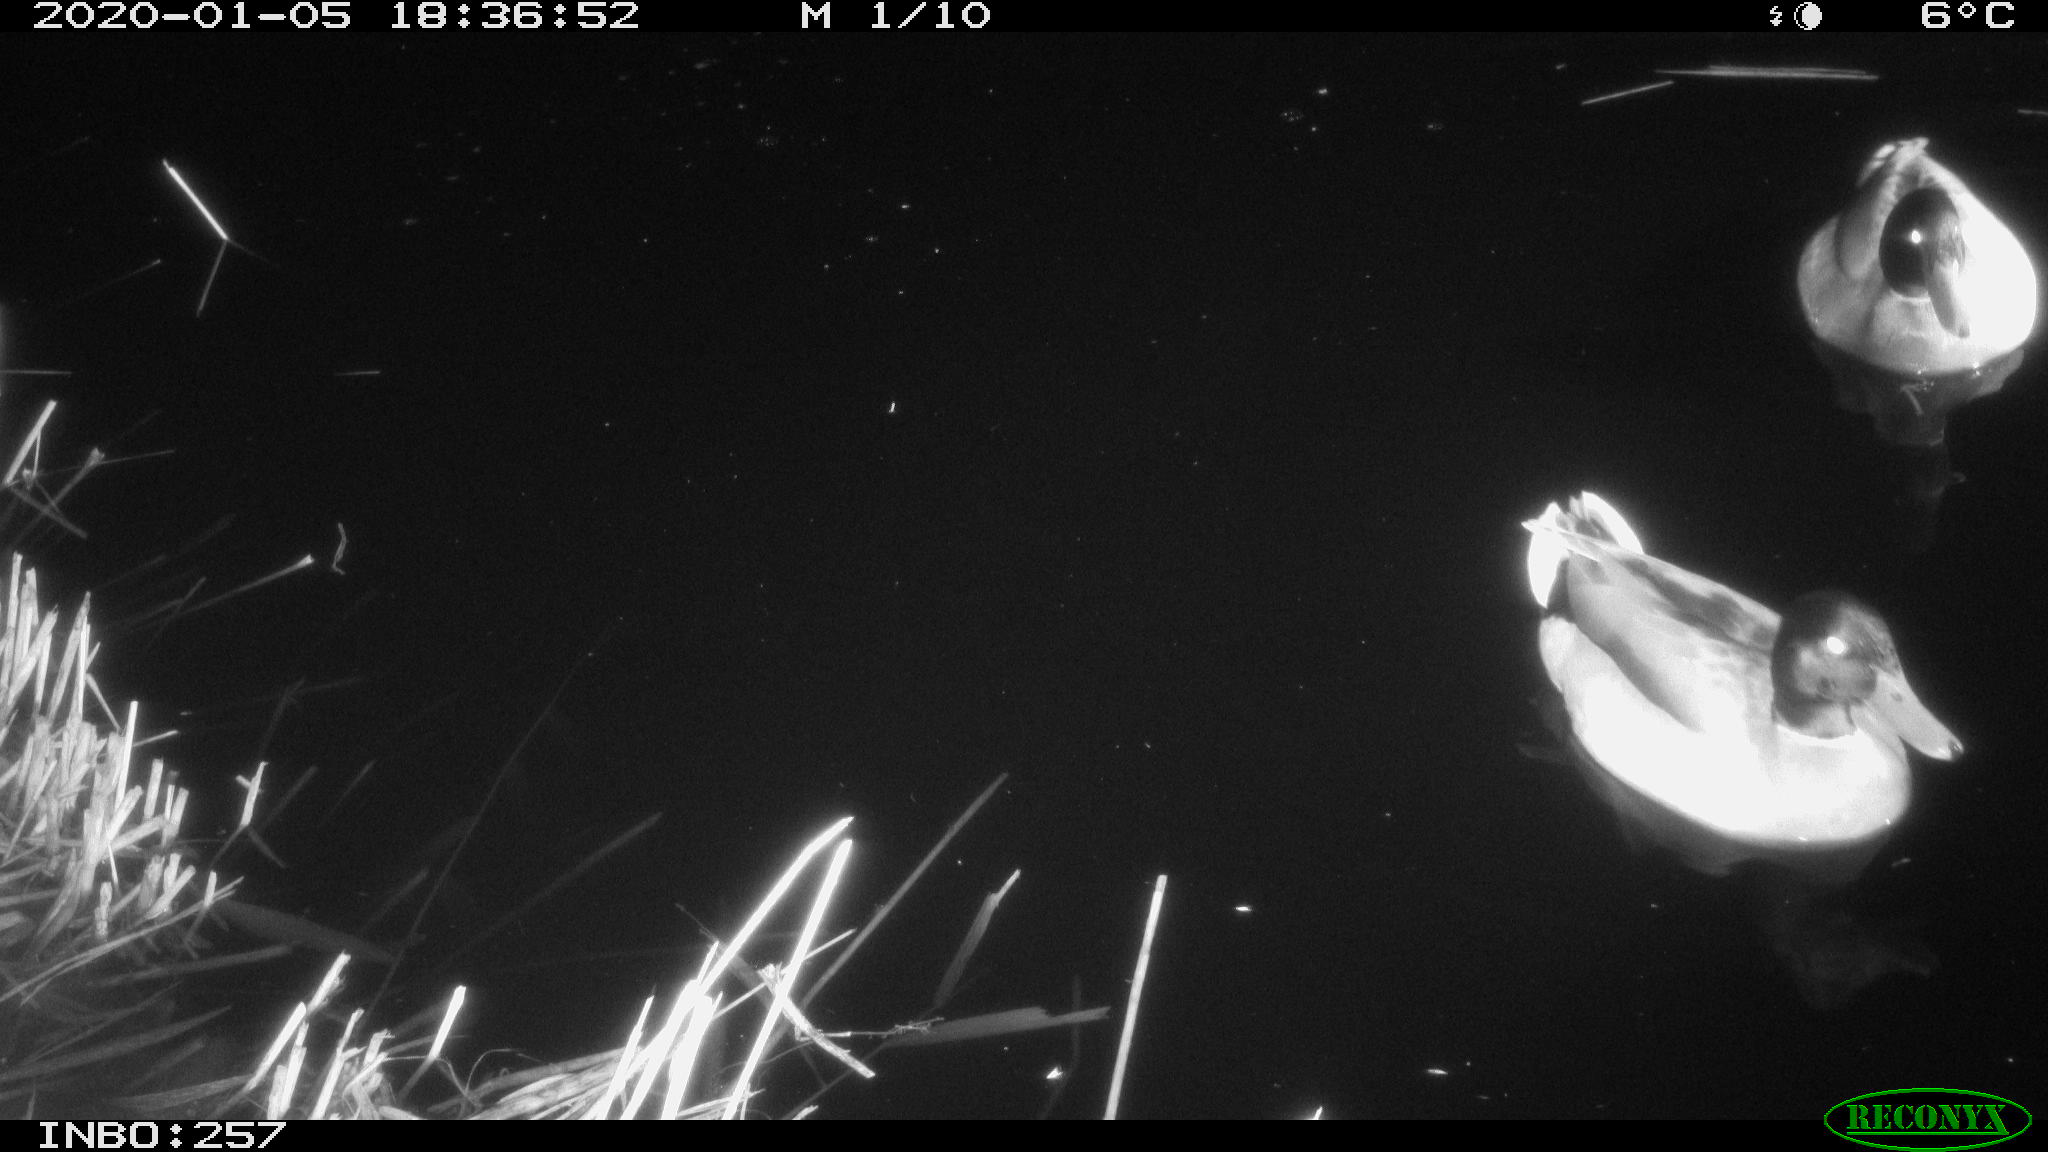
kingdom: Animalia
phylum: Chordata
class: Aves
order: Anseriformes
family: Anatidae
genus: Anas
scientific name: Anas platyrhynchos
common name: Mallard
